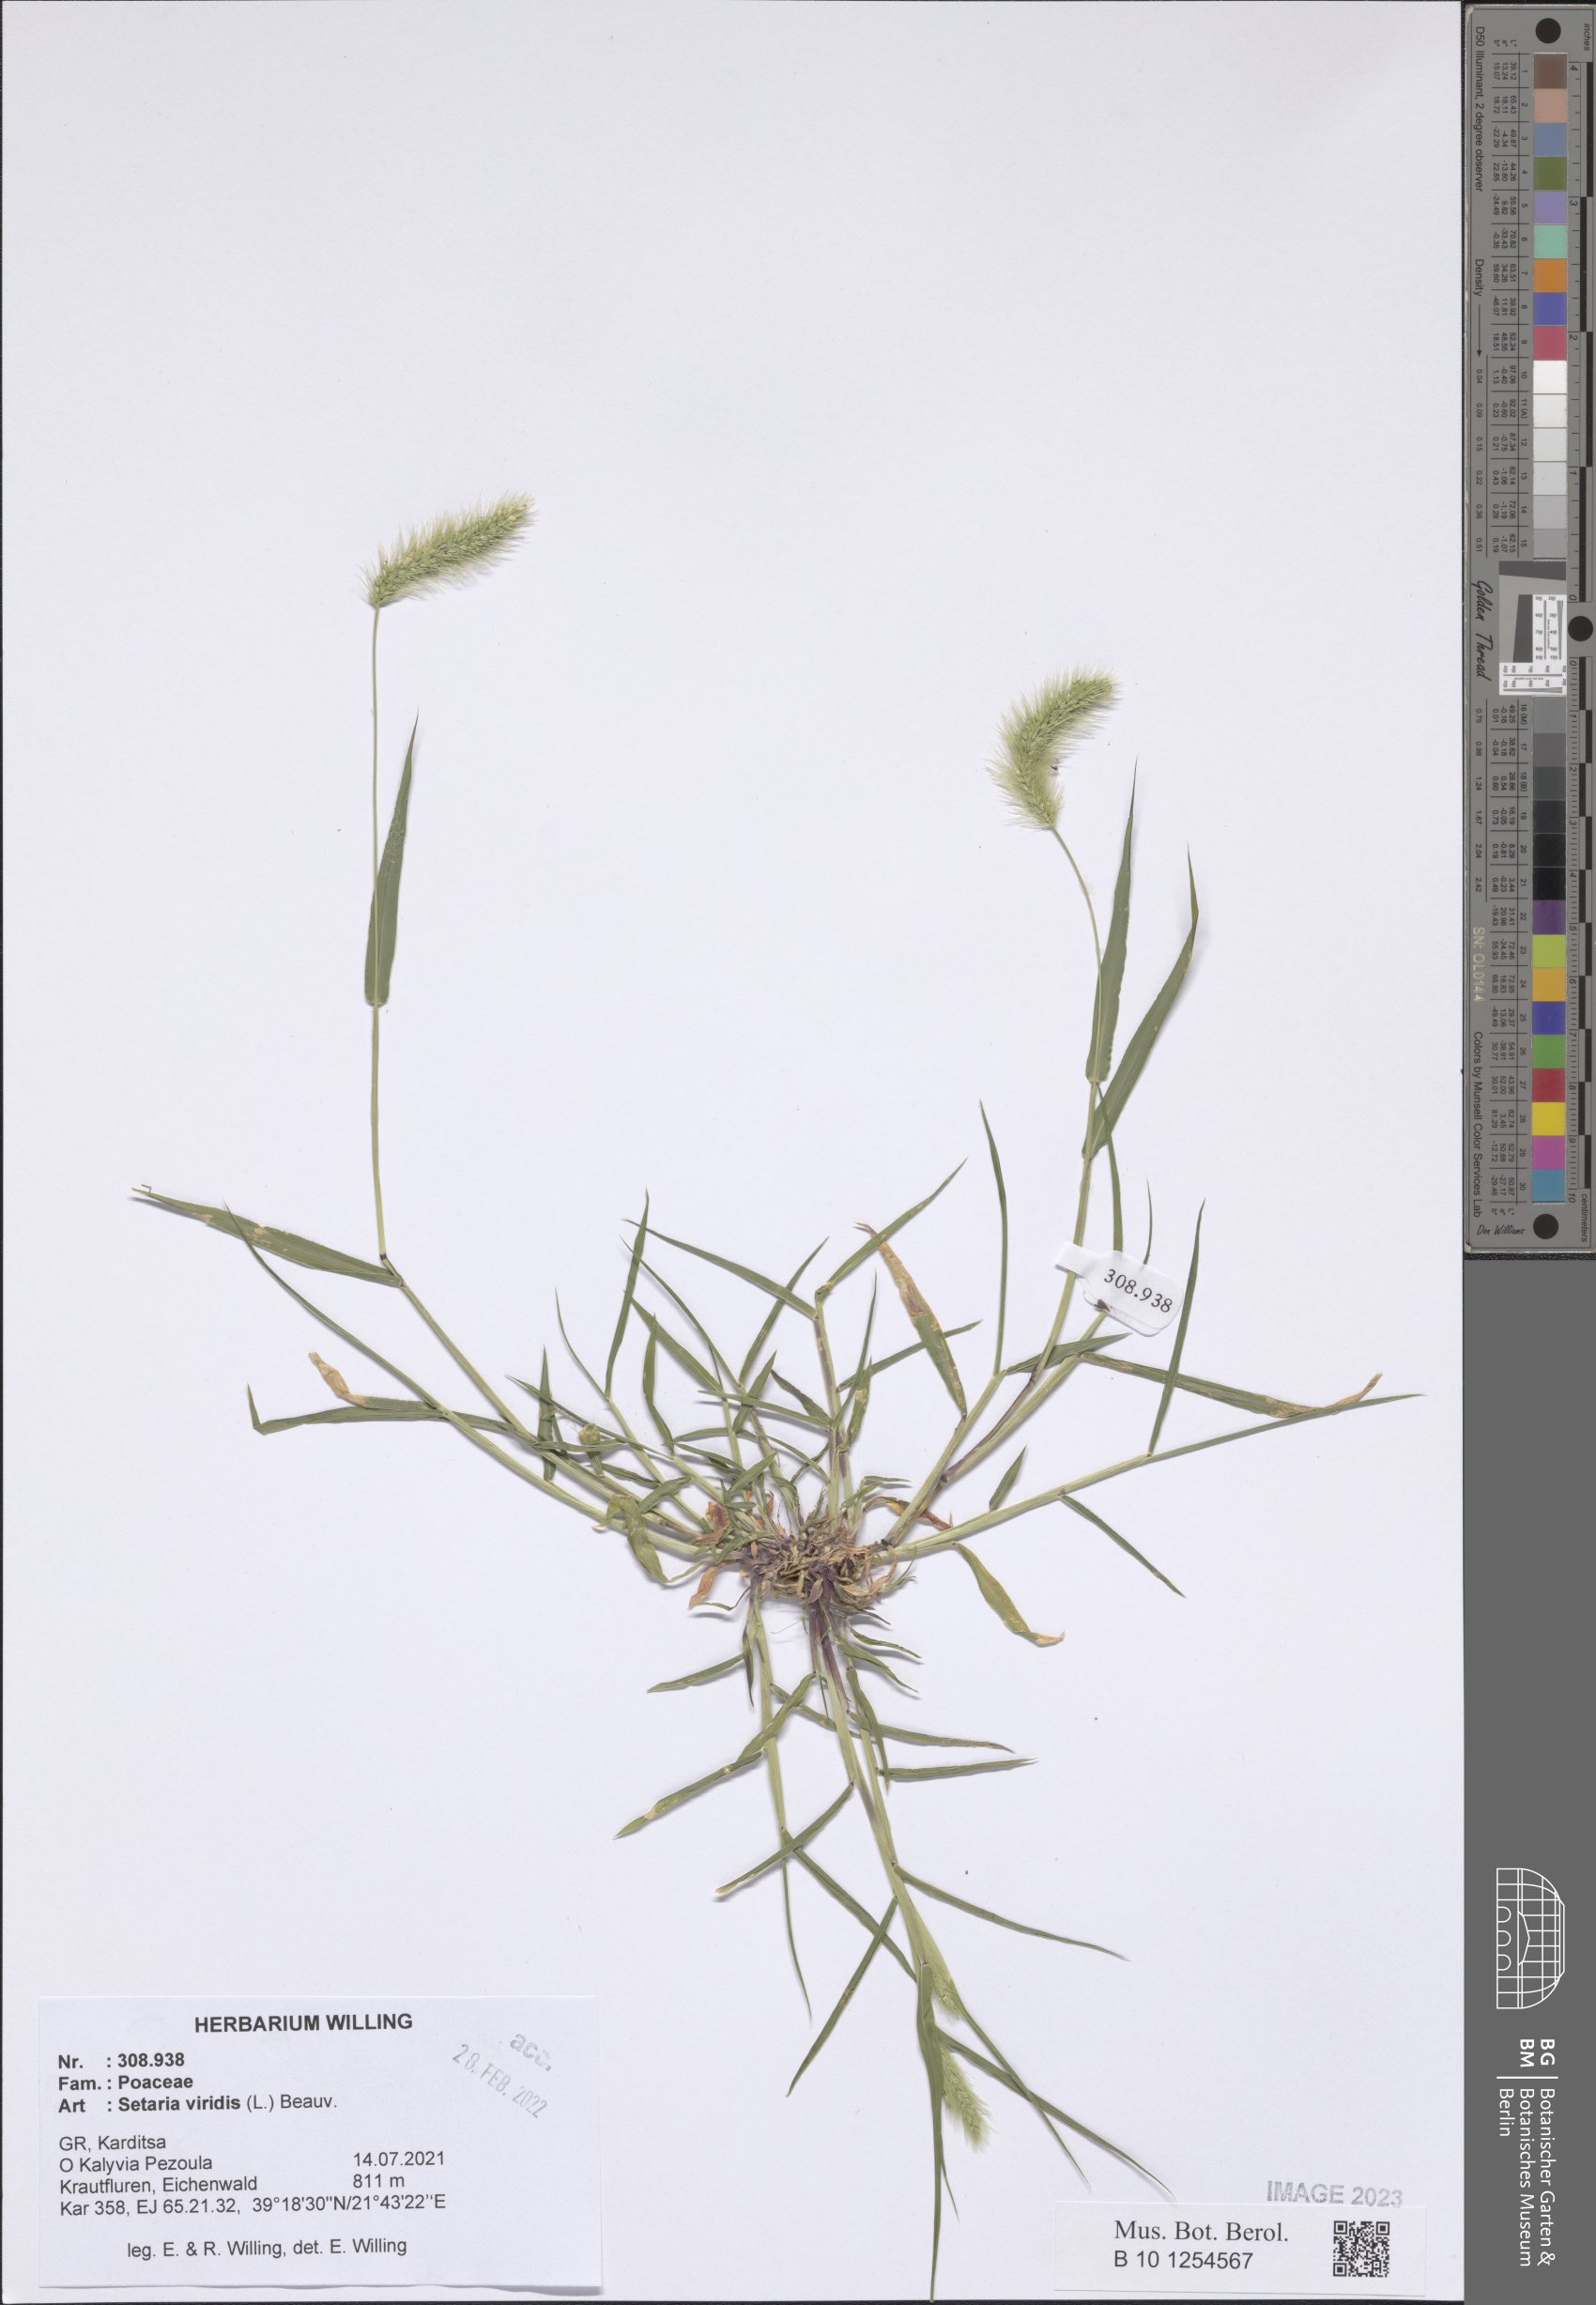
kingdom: Plantae
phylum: Tracheophyta
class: Liliopsida
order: Poales
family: Poaceae
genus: Setaria
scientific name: Setaria viridis
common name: Green bristlegrass
